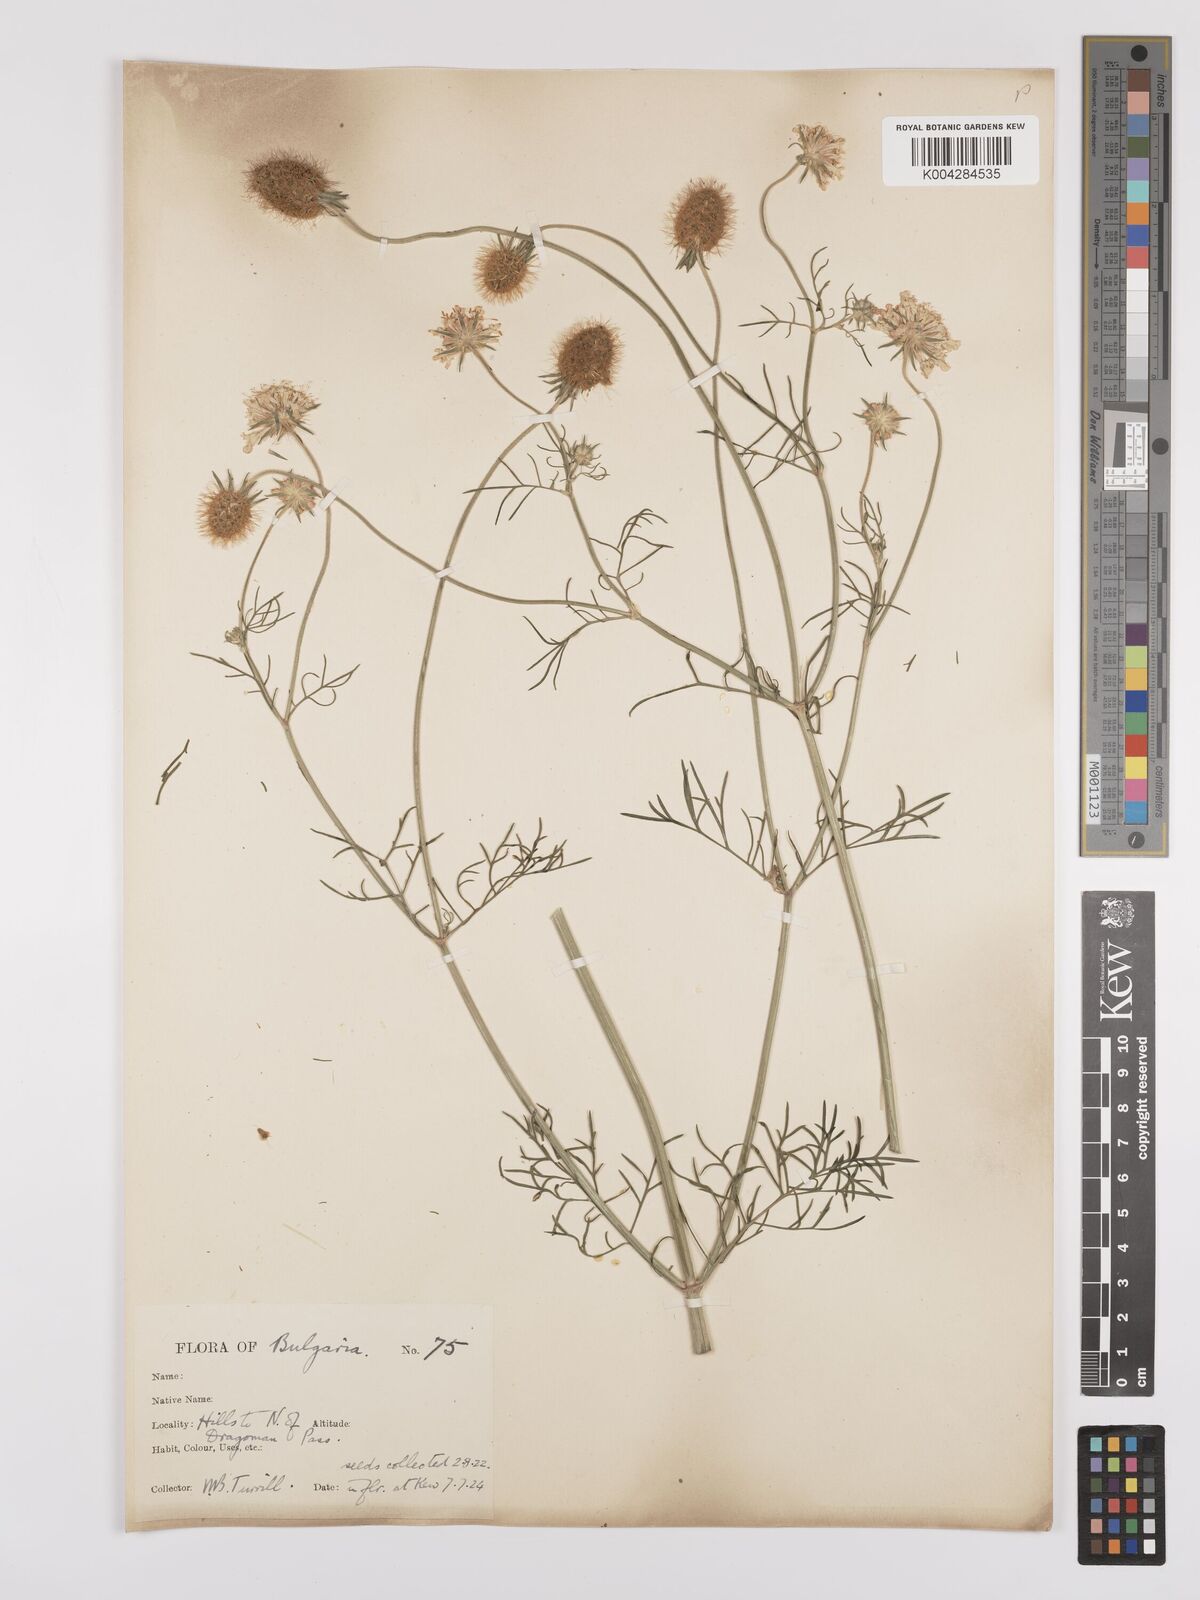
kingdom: Plantae
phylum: Tracheophyta
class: Magnoliopsida
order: Dipsacales
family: Caprifoliaceae
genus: Scabiosa
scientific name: Scabiosa triniifolia
